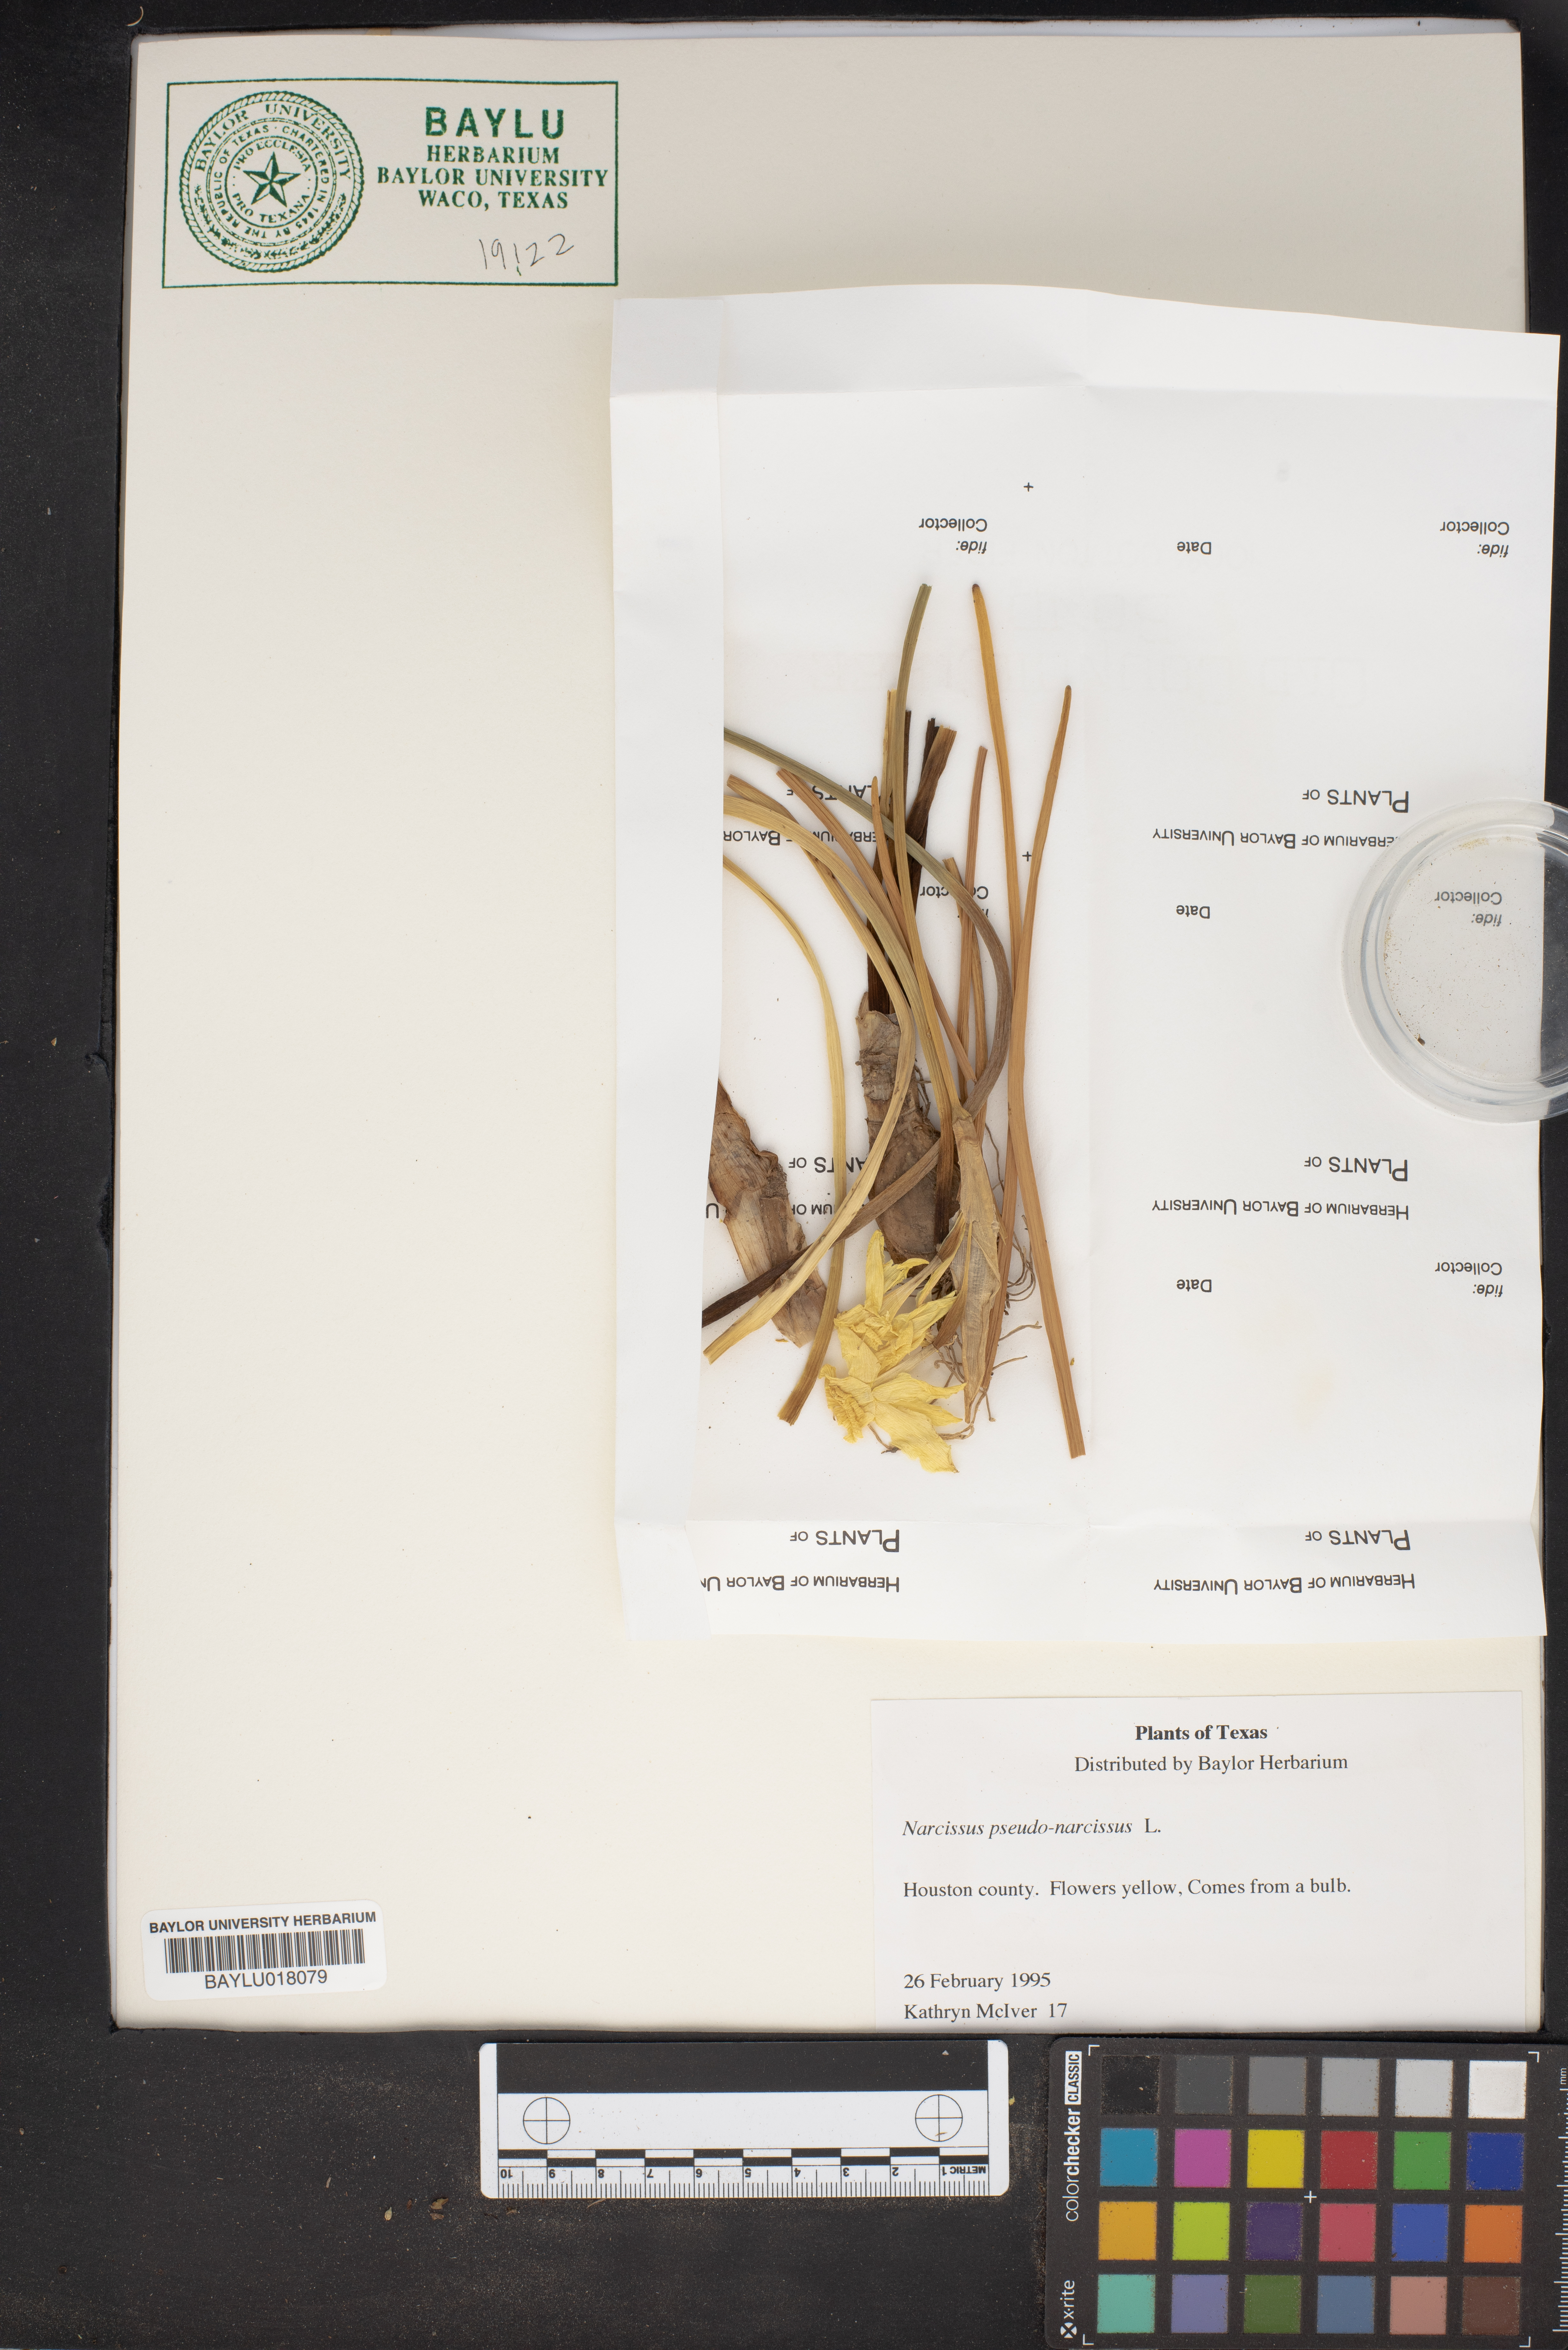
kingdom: Plantae
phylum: Tracheophyta
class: Liliopsida
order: Asparagales
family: Amaryllidaceae
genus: Narcissus
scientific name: Narcissus pseudonarcissus
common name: Daffodil
